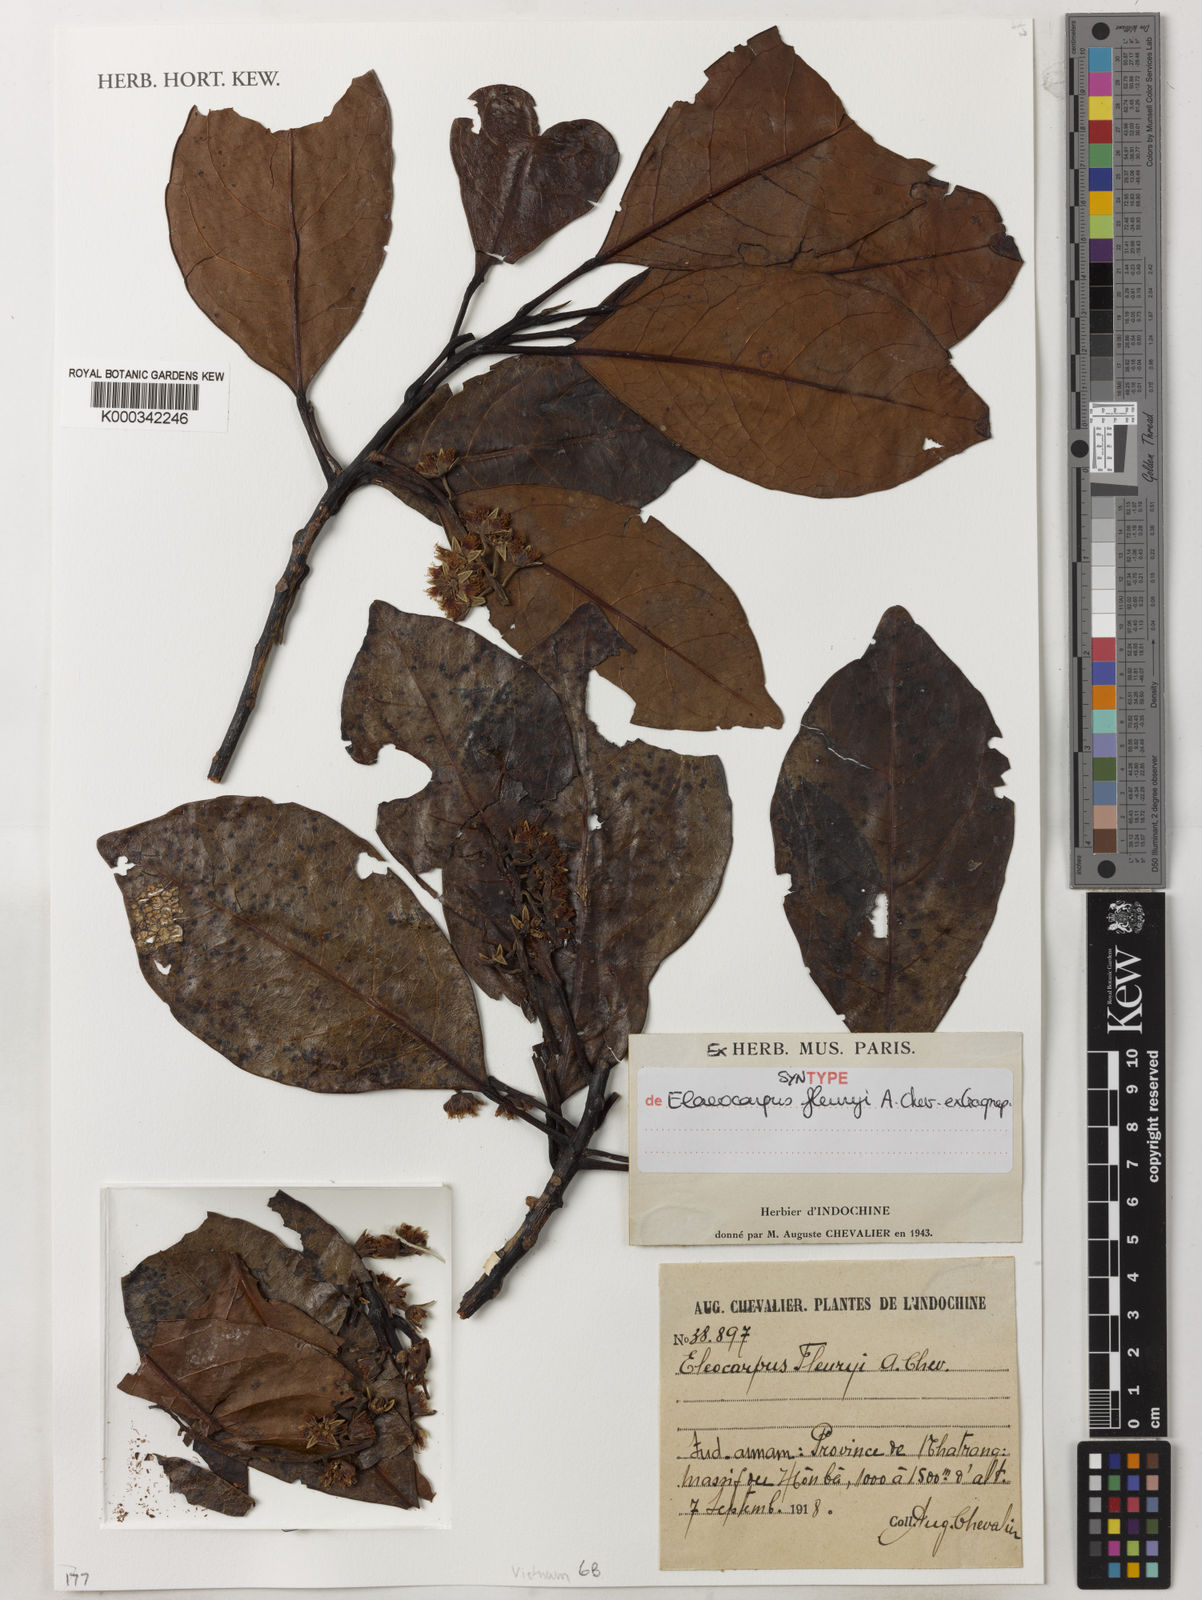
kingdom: Plantae
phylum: Tracheophyta
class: Magnoliopsida
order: Oxalidales
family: Elaeocarpaceae
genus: Elaeocarpus
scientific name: Elaeocarpus fleuryi
